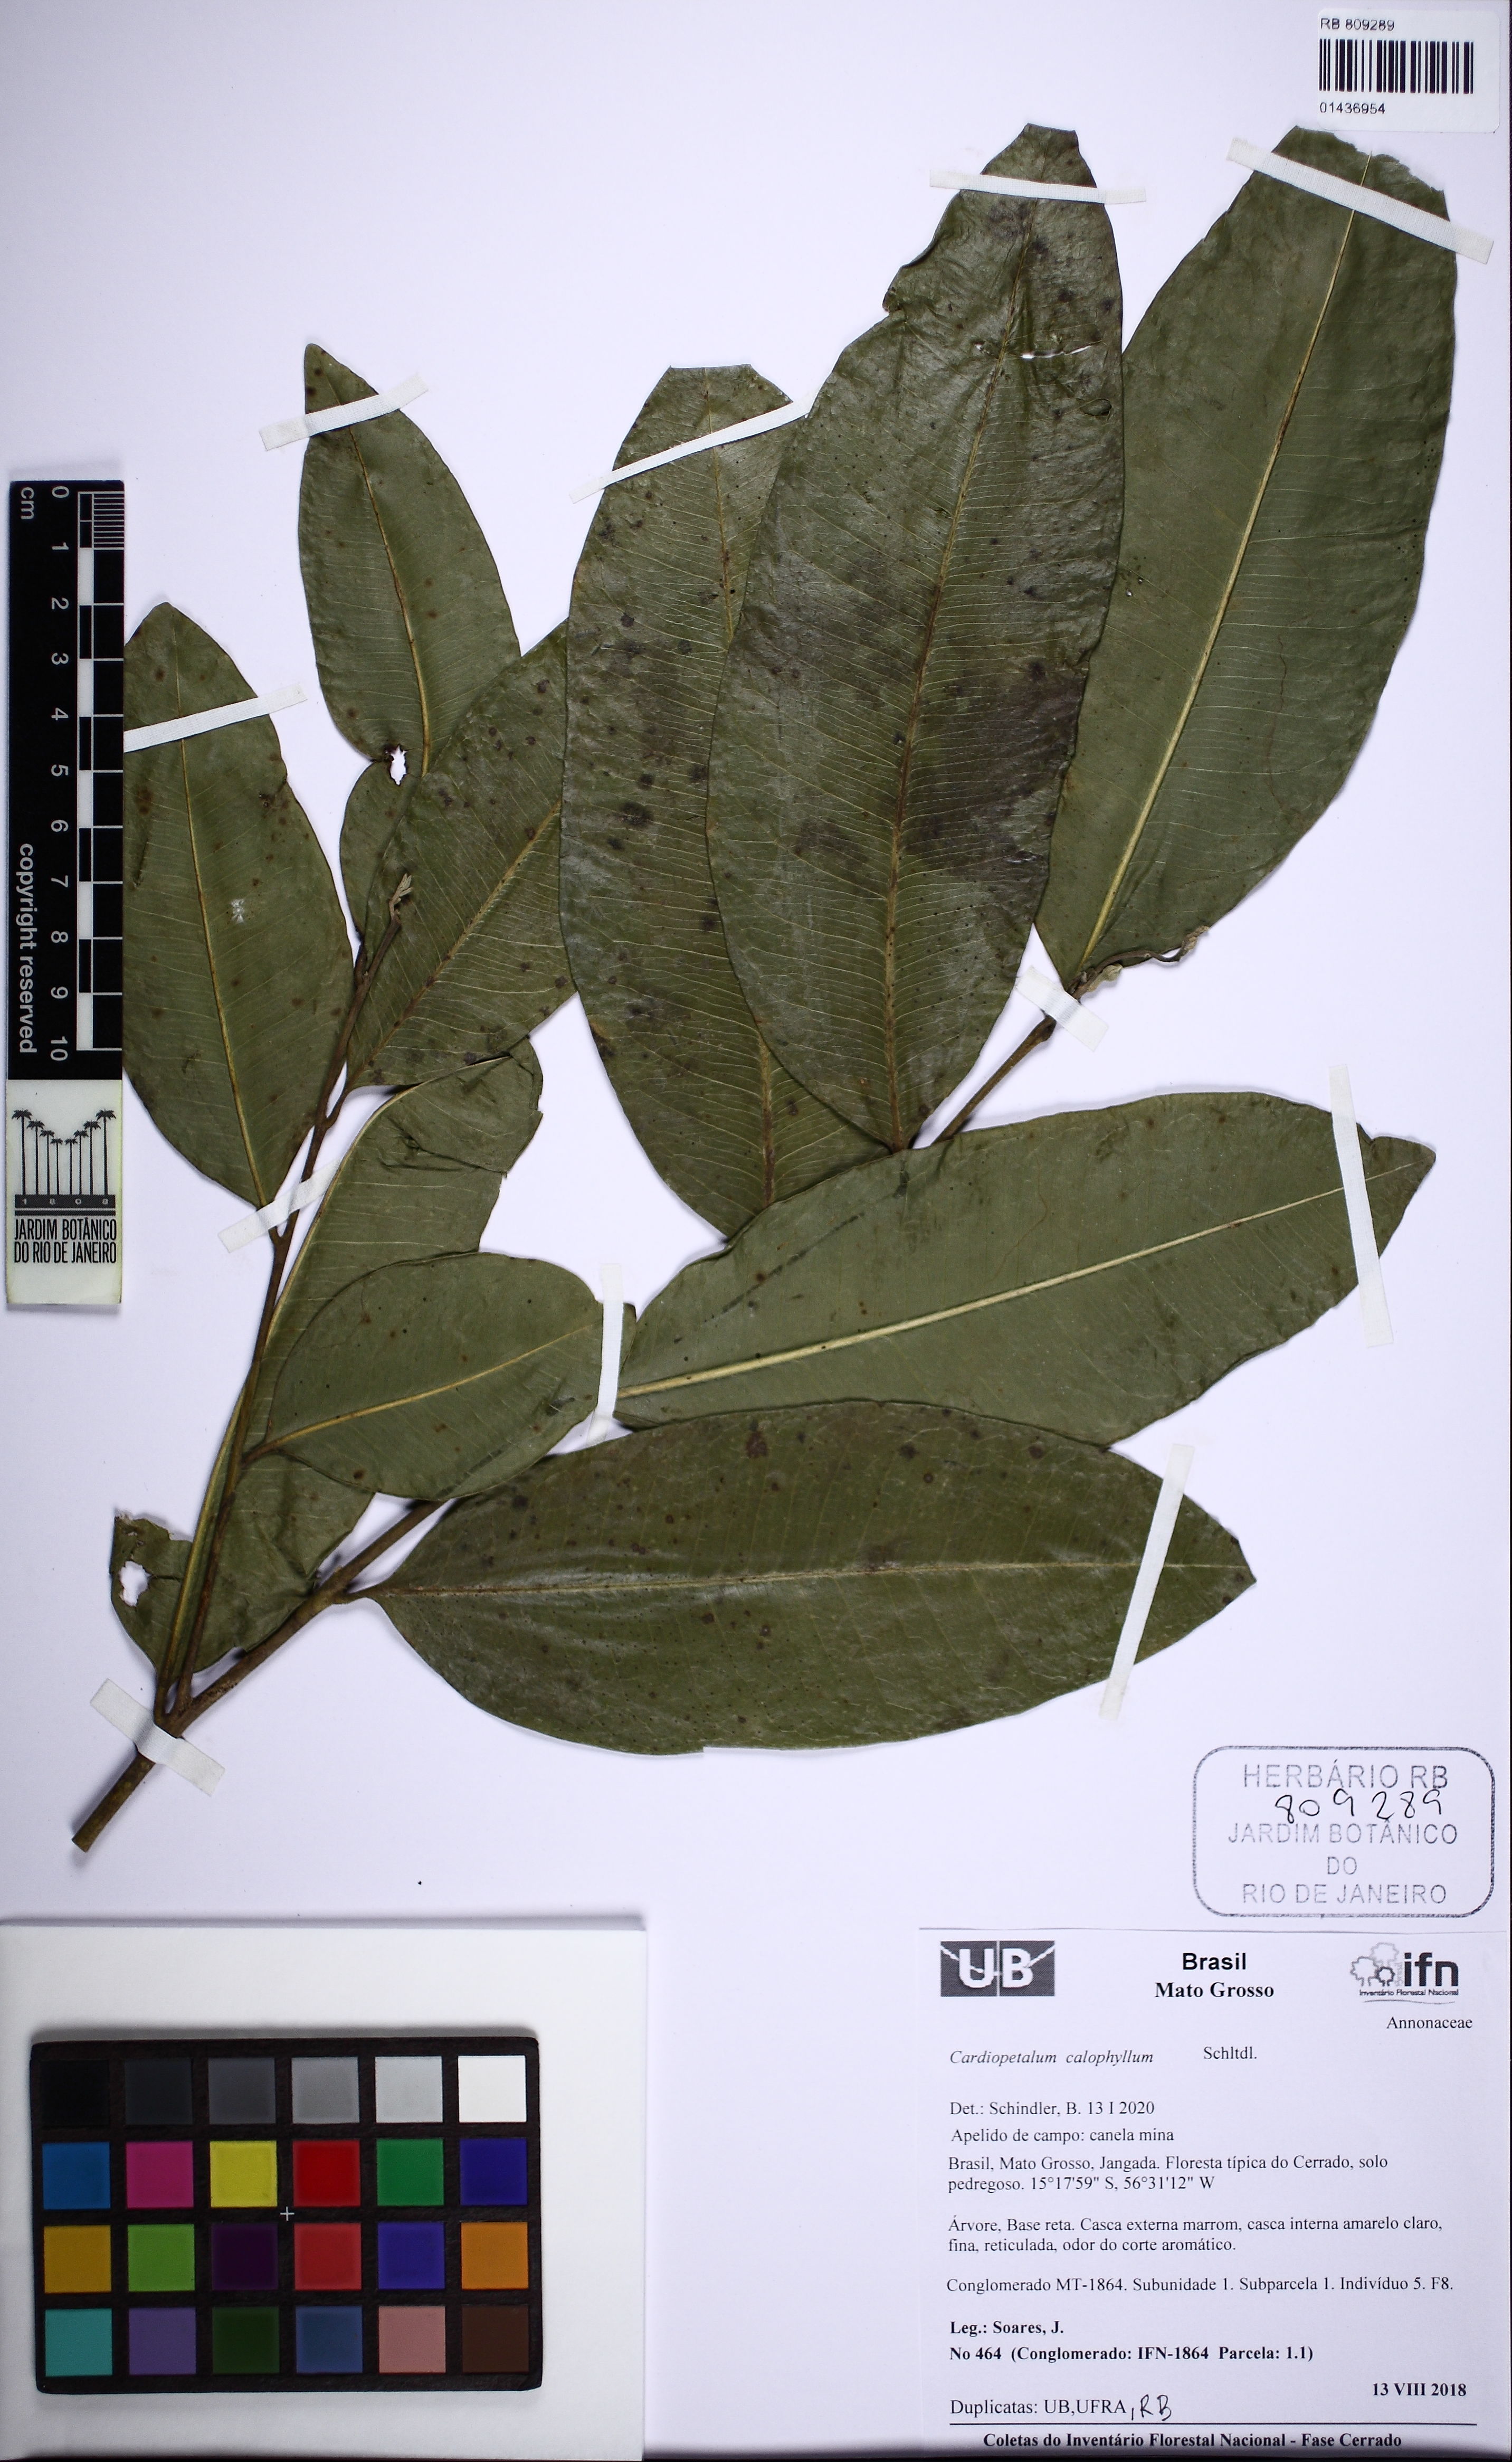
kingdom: Plantae
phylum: Tracheophyta
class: Magnoliopsida
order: Magnoliales
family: Annonaceae
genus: Cardiopetalum
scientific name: Cardiopetalum calophyllum
